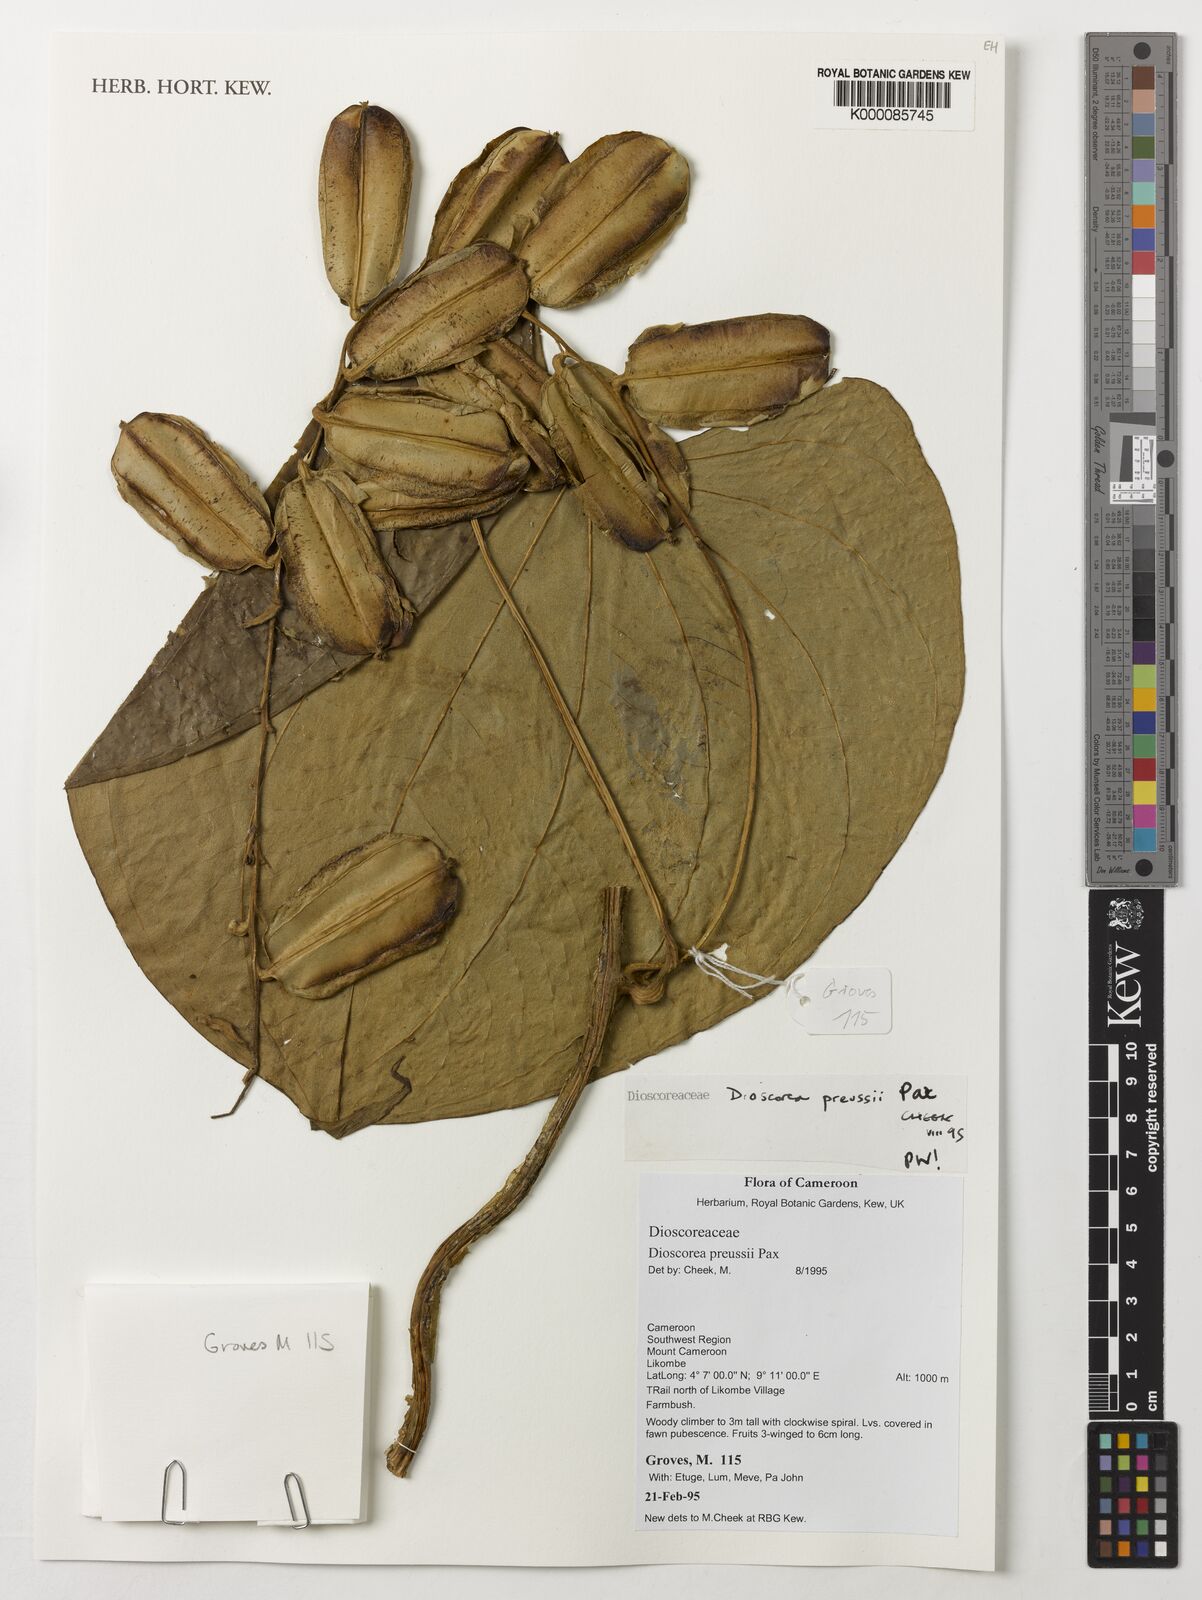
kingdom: Plantae
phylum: Tracheophyta
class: Liliopsida
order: Dioscoreales
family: Dioscoreaceae
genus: Dioscorea
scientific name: Dioscorea preussii
